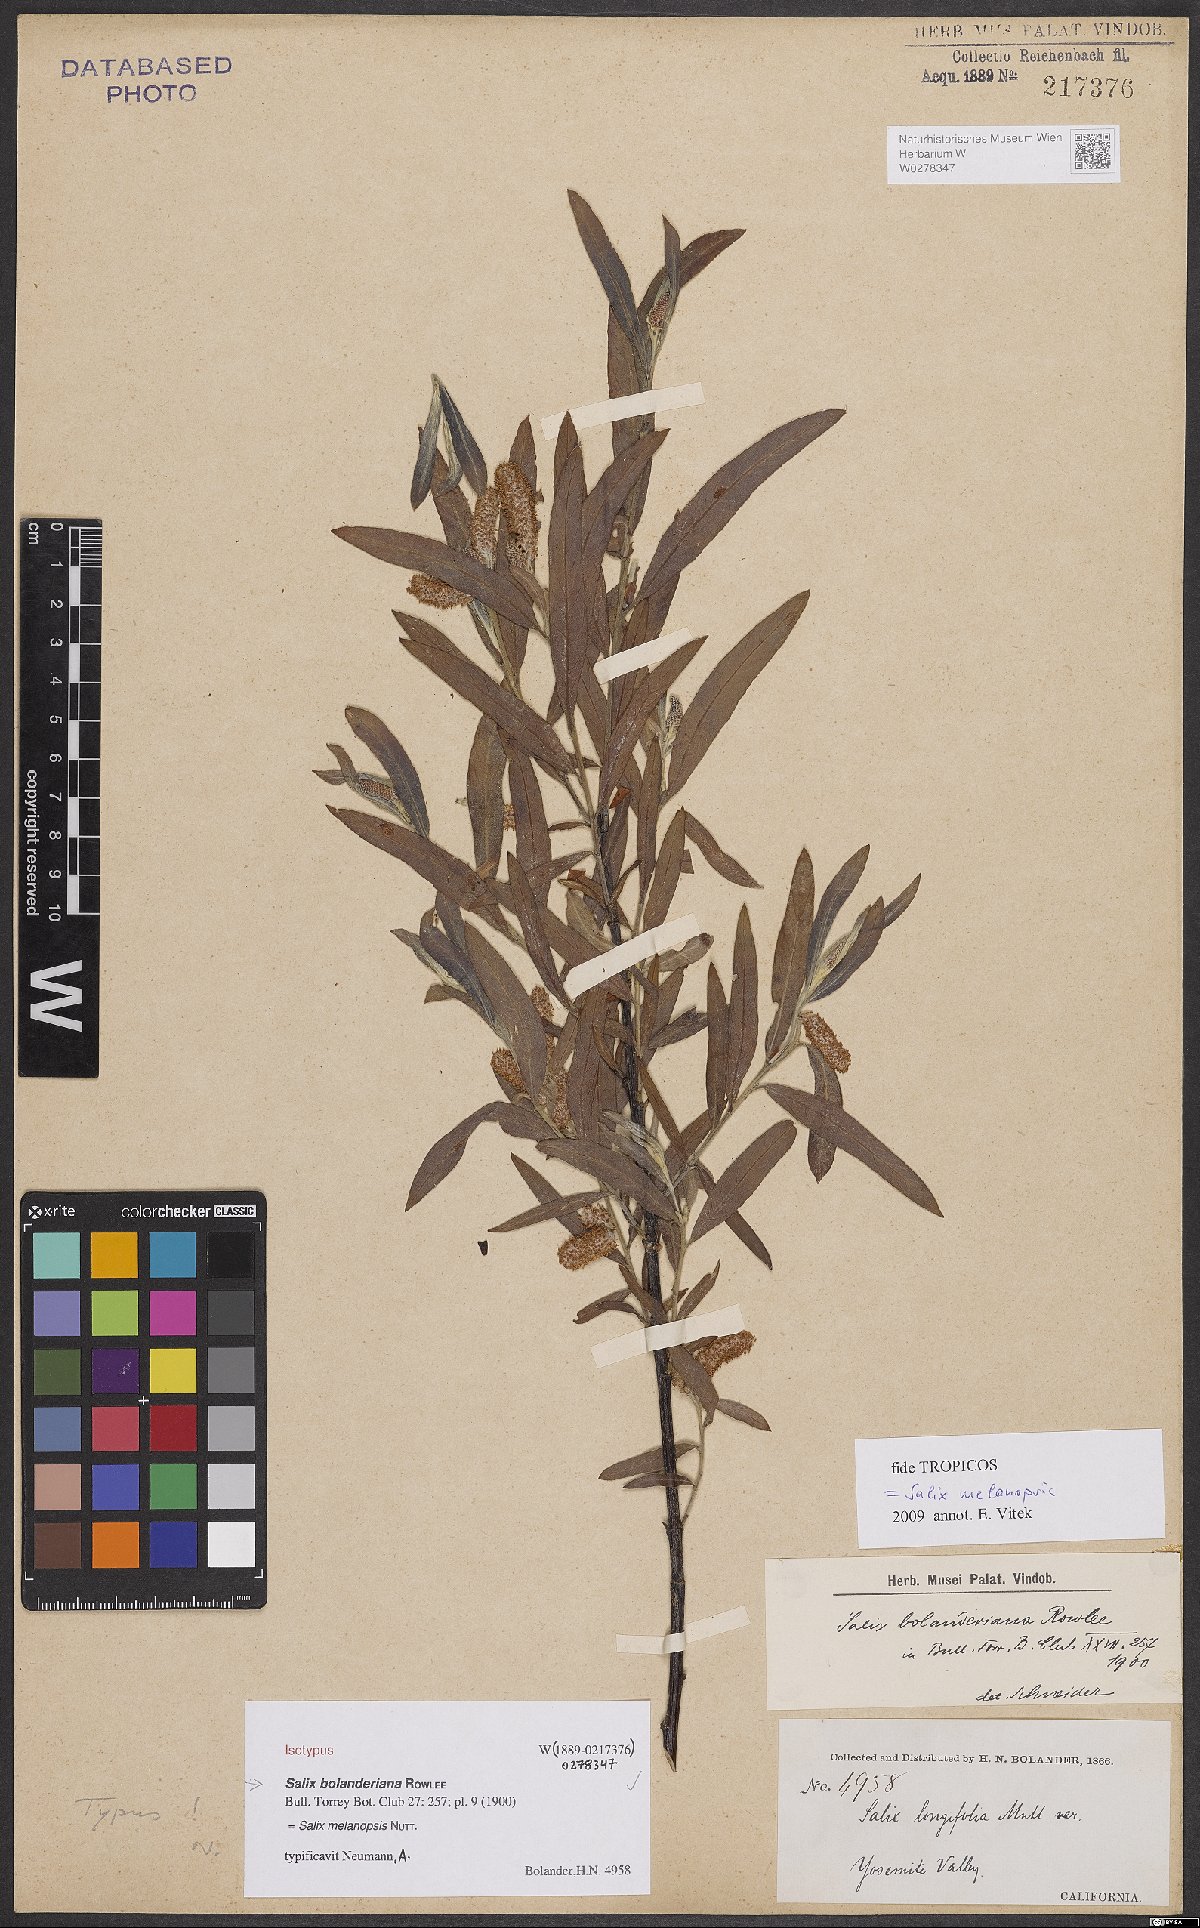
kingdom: Plantae
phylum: Tracheophyta
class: Magnoliopsida
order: Malpighiales
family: Salicaceae
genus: Salix
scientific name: Salix melanopsis
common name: Dusky willow
